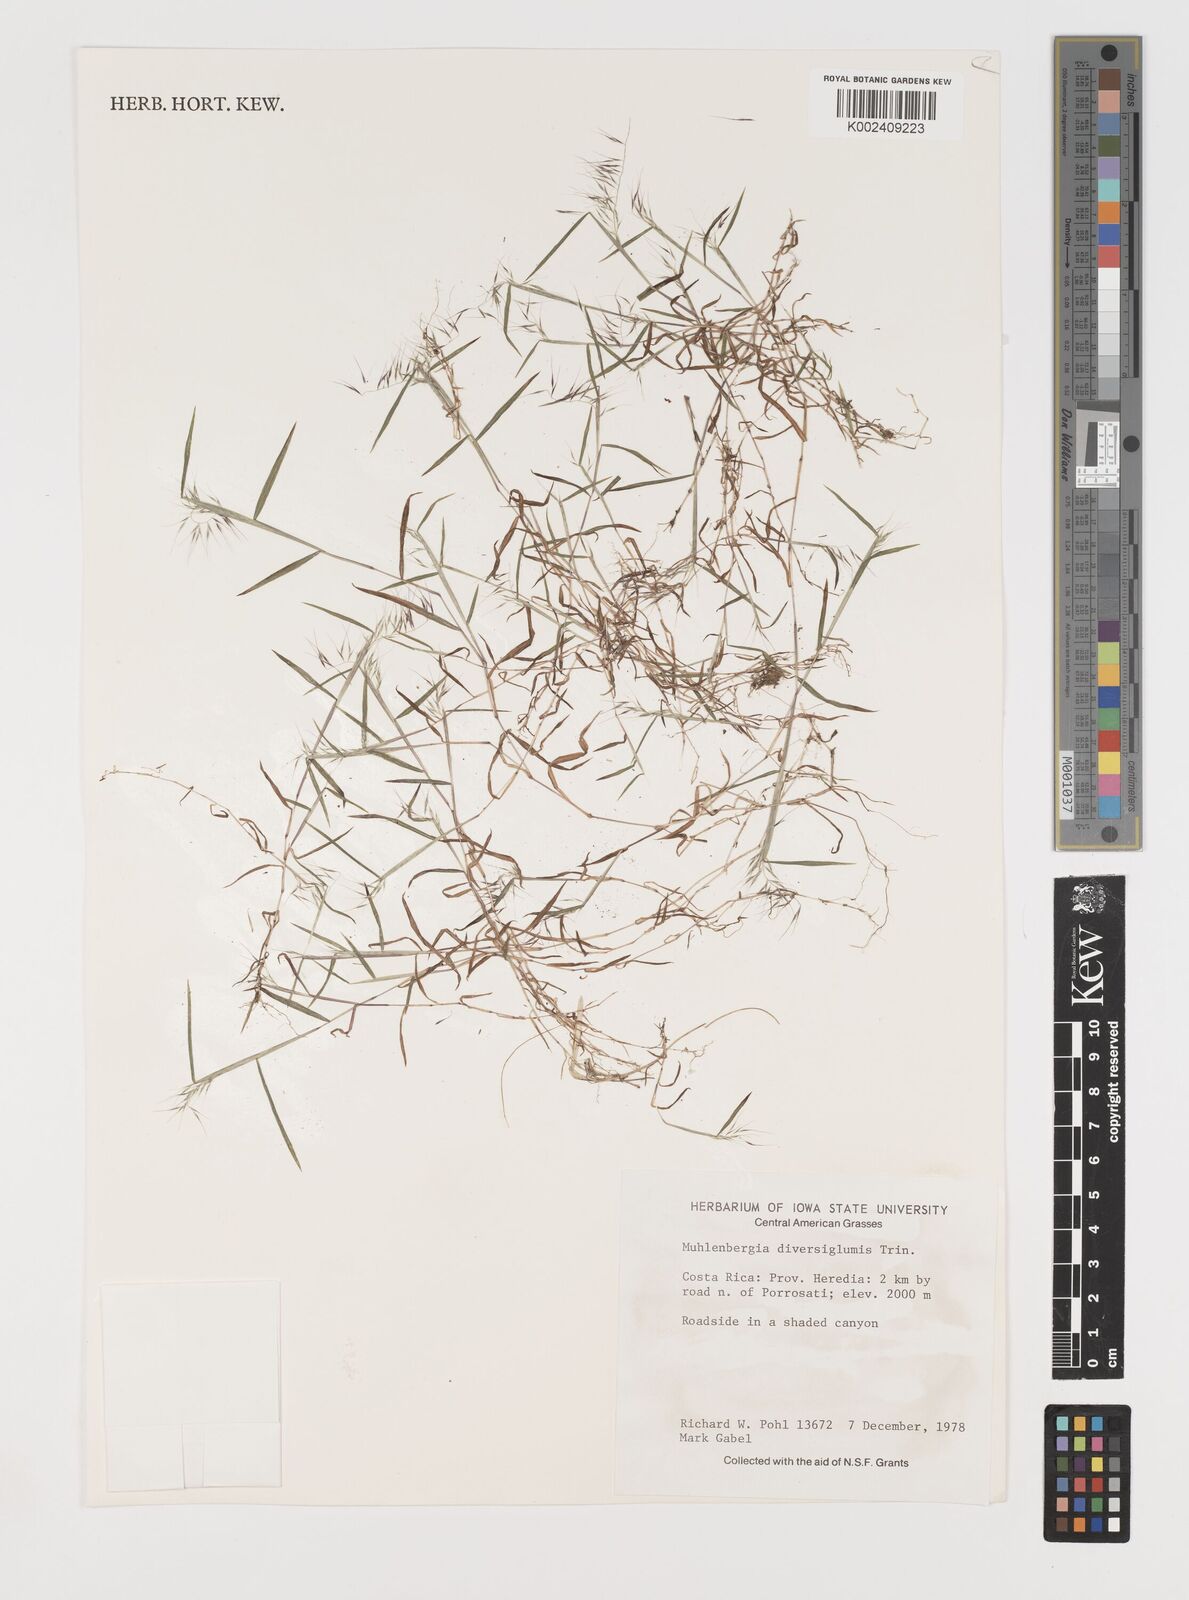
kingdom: Plantae
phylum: Tracheophyta
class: Liliopsida
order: Poales
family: Poaceae
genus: Muhlenbergia
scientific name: Muhlenbergia diversiglumis
